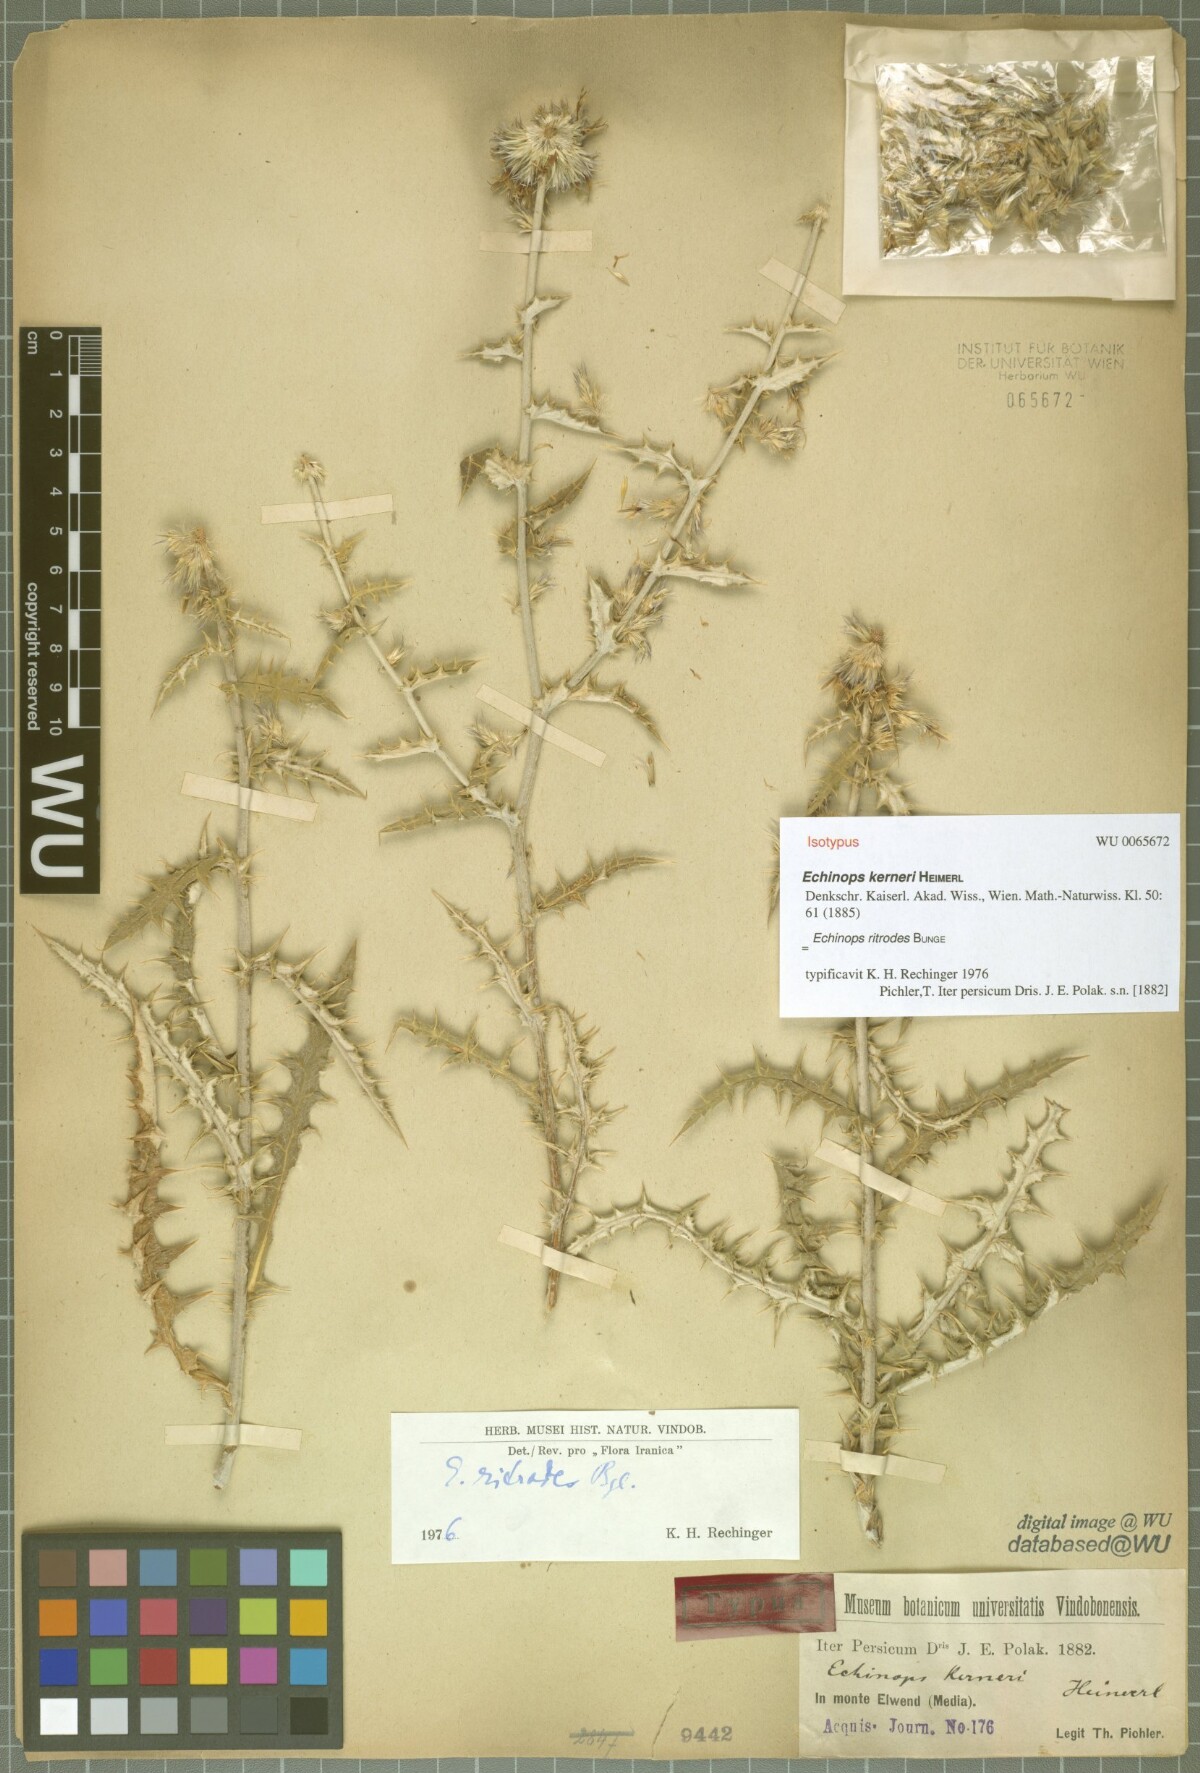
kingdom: Plantae
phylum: Tracheophyta
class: Magnoliopsida
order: Asterales
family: Asteraceae
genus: Echinops
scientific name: Echinops kerneri
